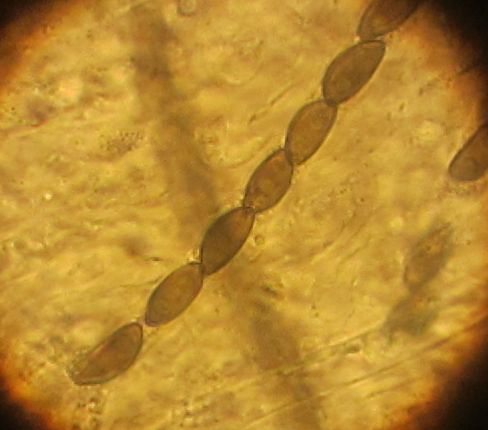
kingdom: Fungi
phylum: Ascomycota
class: Sordariomycetes
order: Xylariales
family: Hypoxylaceae
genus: Jackrogersella
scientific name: Jackrogersella multiformis
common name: foranderlig kulbær
